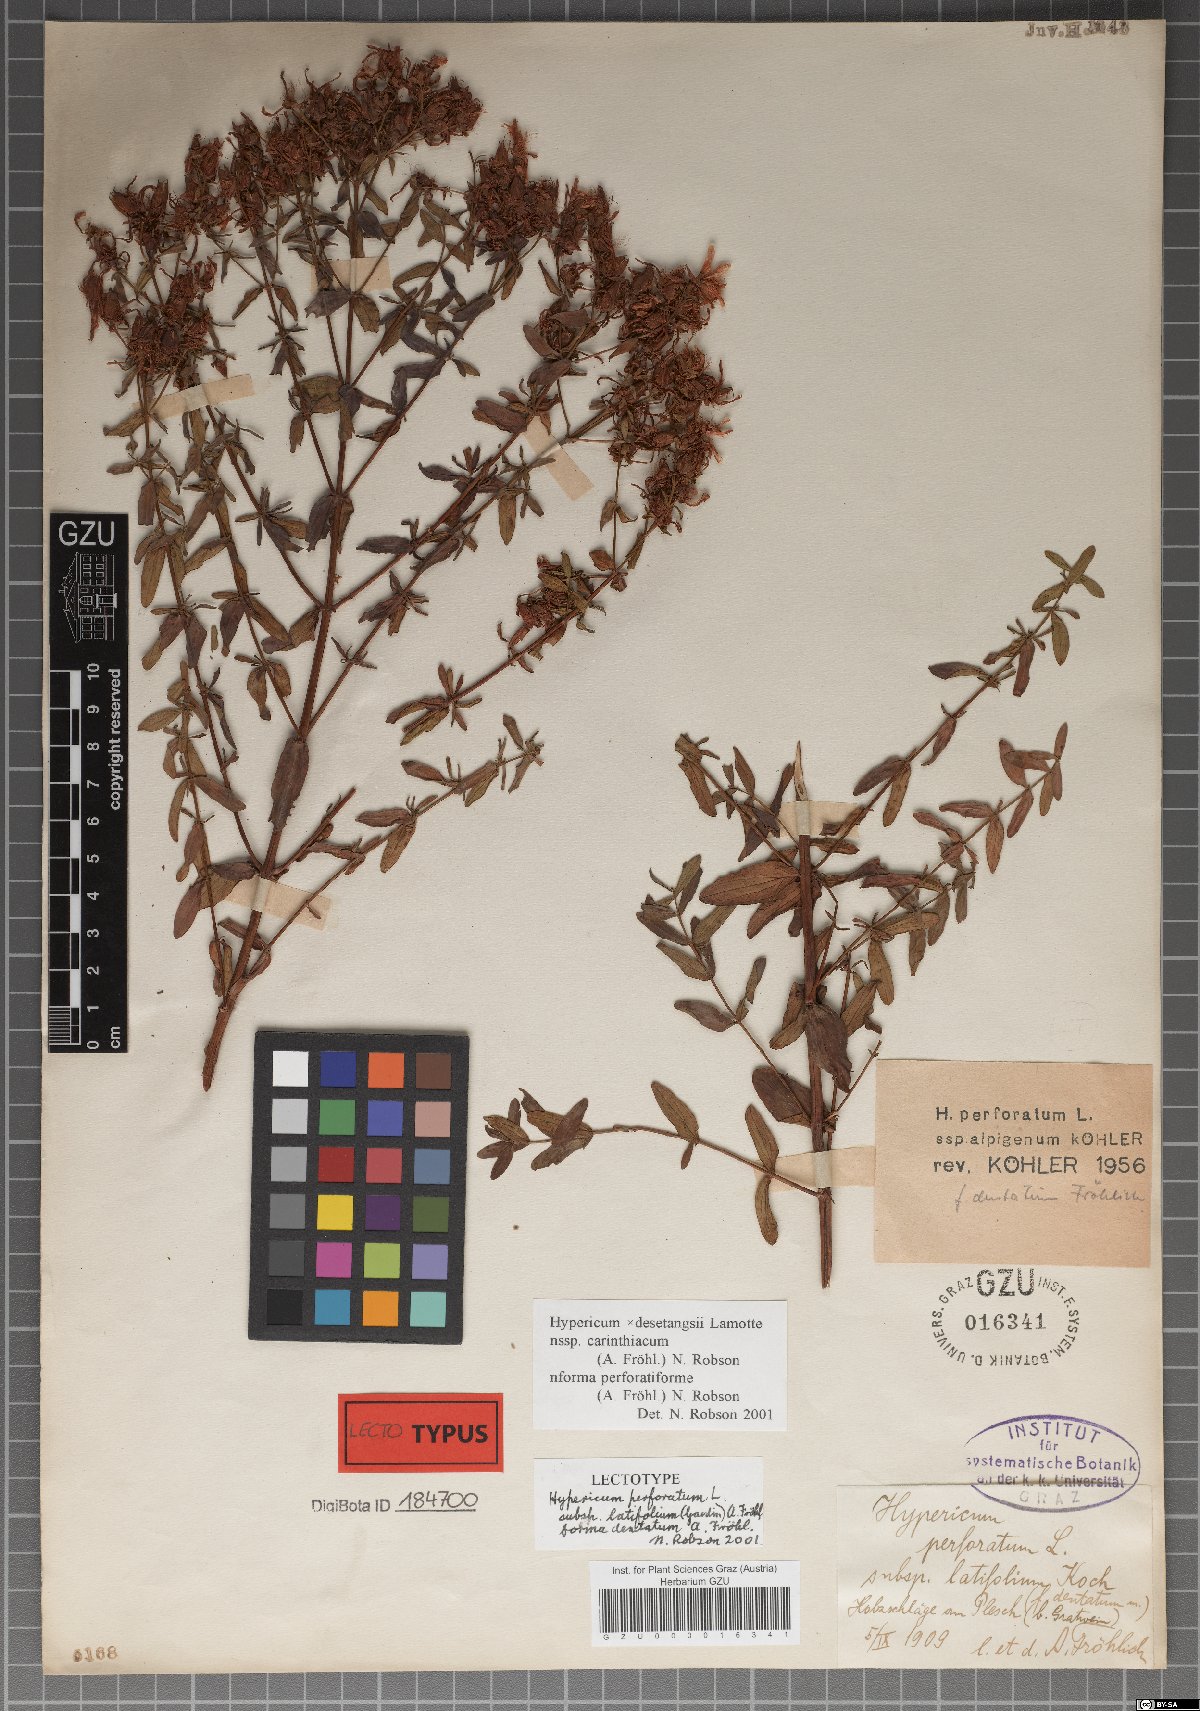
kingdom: Plantae
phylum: Tracheophyta
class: Magnoliopsida
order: Malpighiales
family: Hypericaceae
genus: Hypericum
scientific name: Hypericum perforatum
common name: Common st. johnswort
